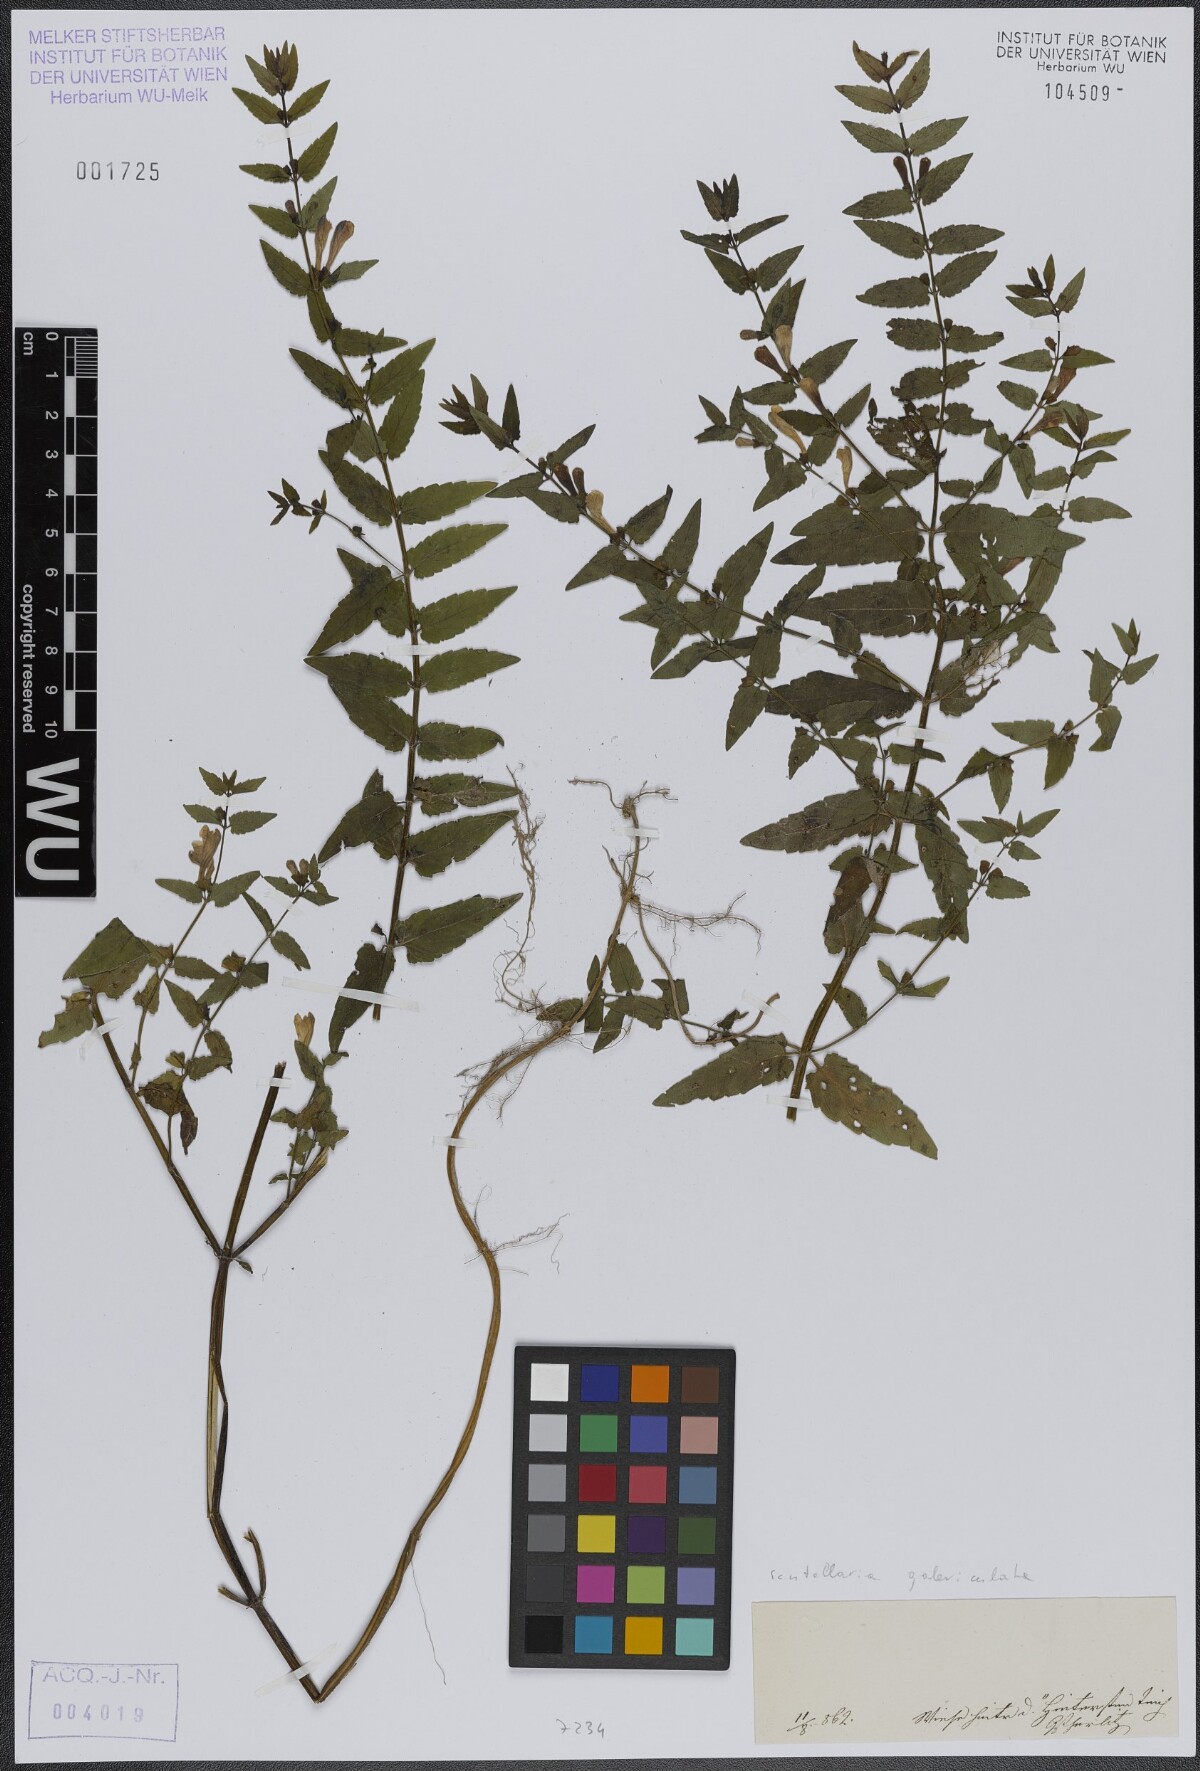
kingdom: Plantae
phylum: Tracheophyta
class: Magnoliopsida
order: Lamiales
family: Lamiaceae
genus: Scutellaria
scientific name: Scutellaria galericulata
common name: Skullcap
